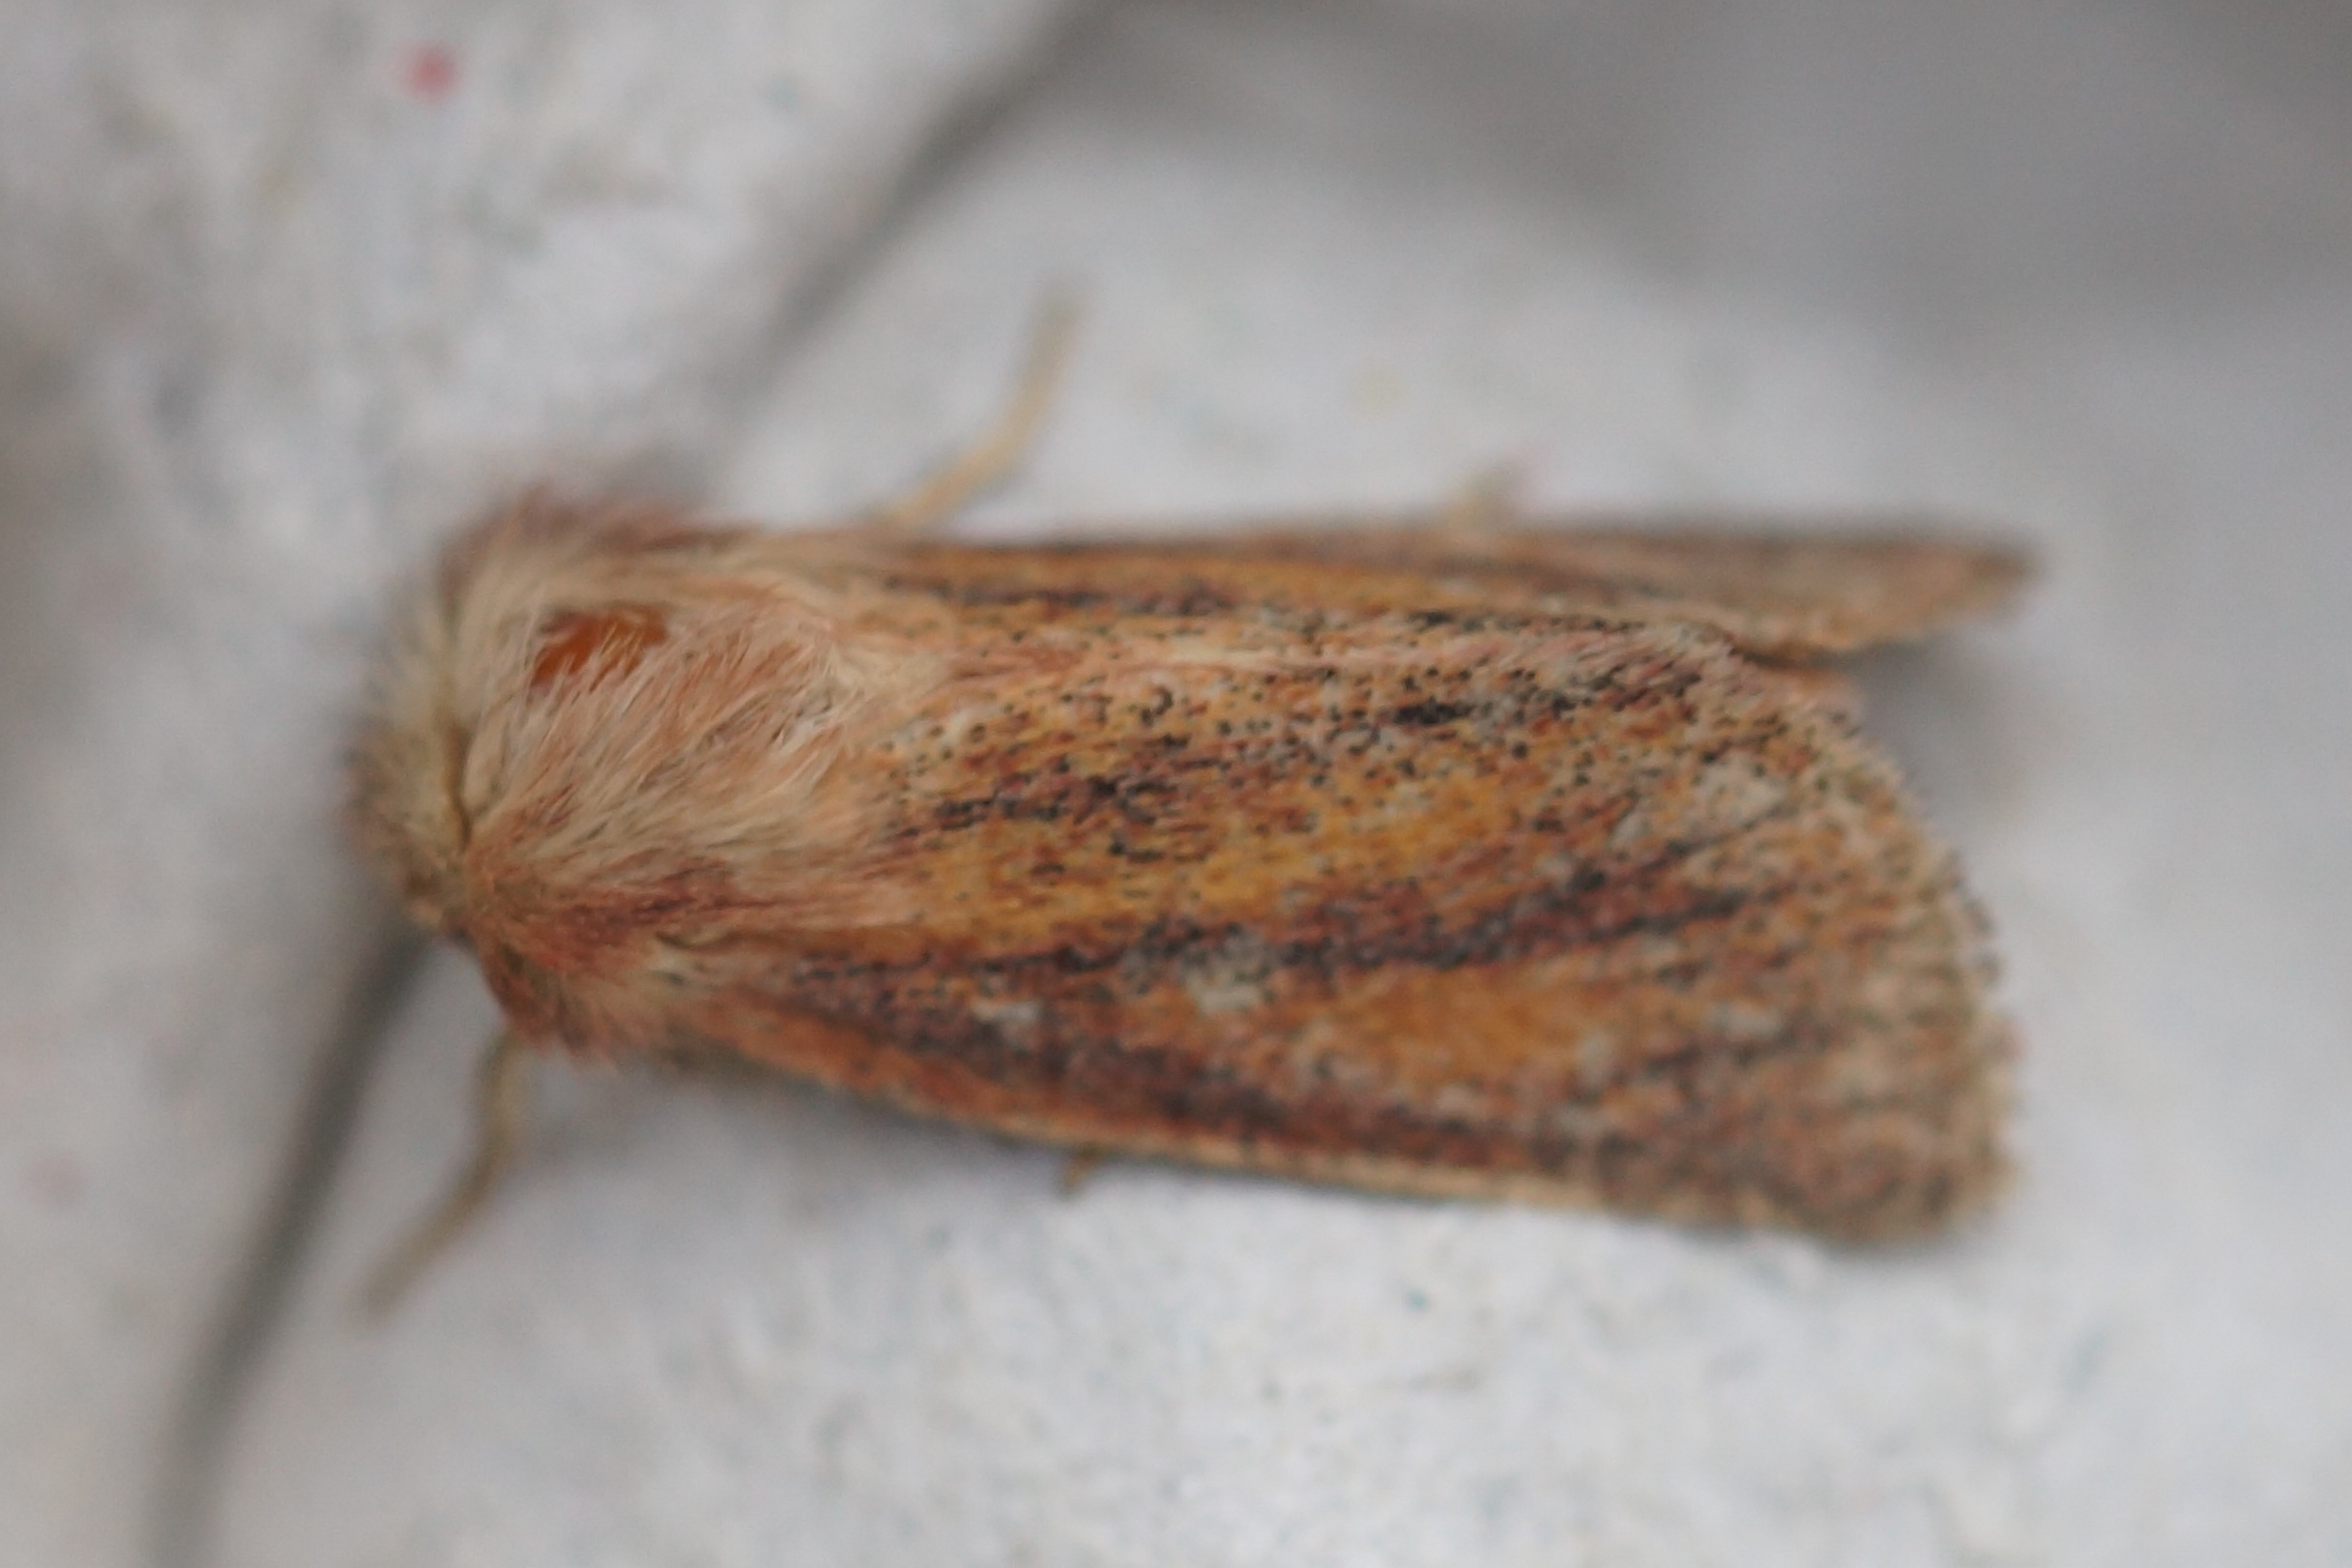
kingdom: Animalia
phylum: Arthropoda
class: Insecta
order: Lepidoptera
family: Noctuidae
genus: Denticucullus
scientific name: Denticucullus pygmina
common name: Lille starugle
